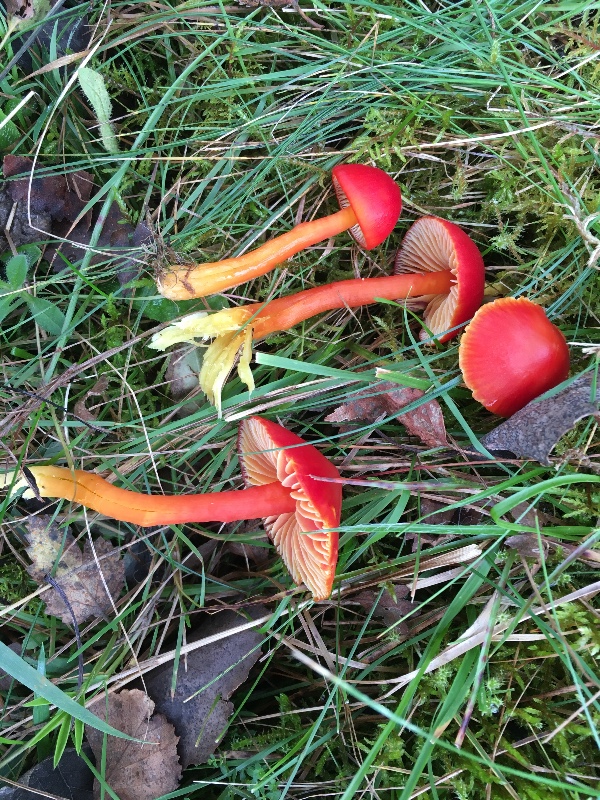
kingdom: Fungi
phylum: Basidiomycota
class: Agaricomycetes
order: Agaricales
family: Hygrophoraceae
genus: Hygrocybe
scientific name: Hygrocybe coccinea
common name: cinnober-vokshat
